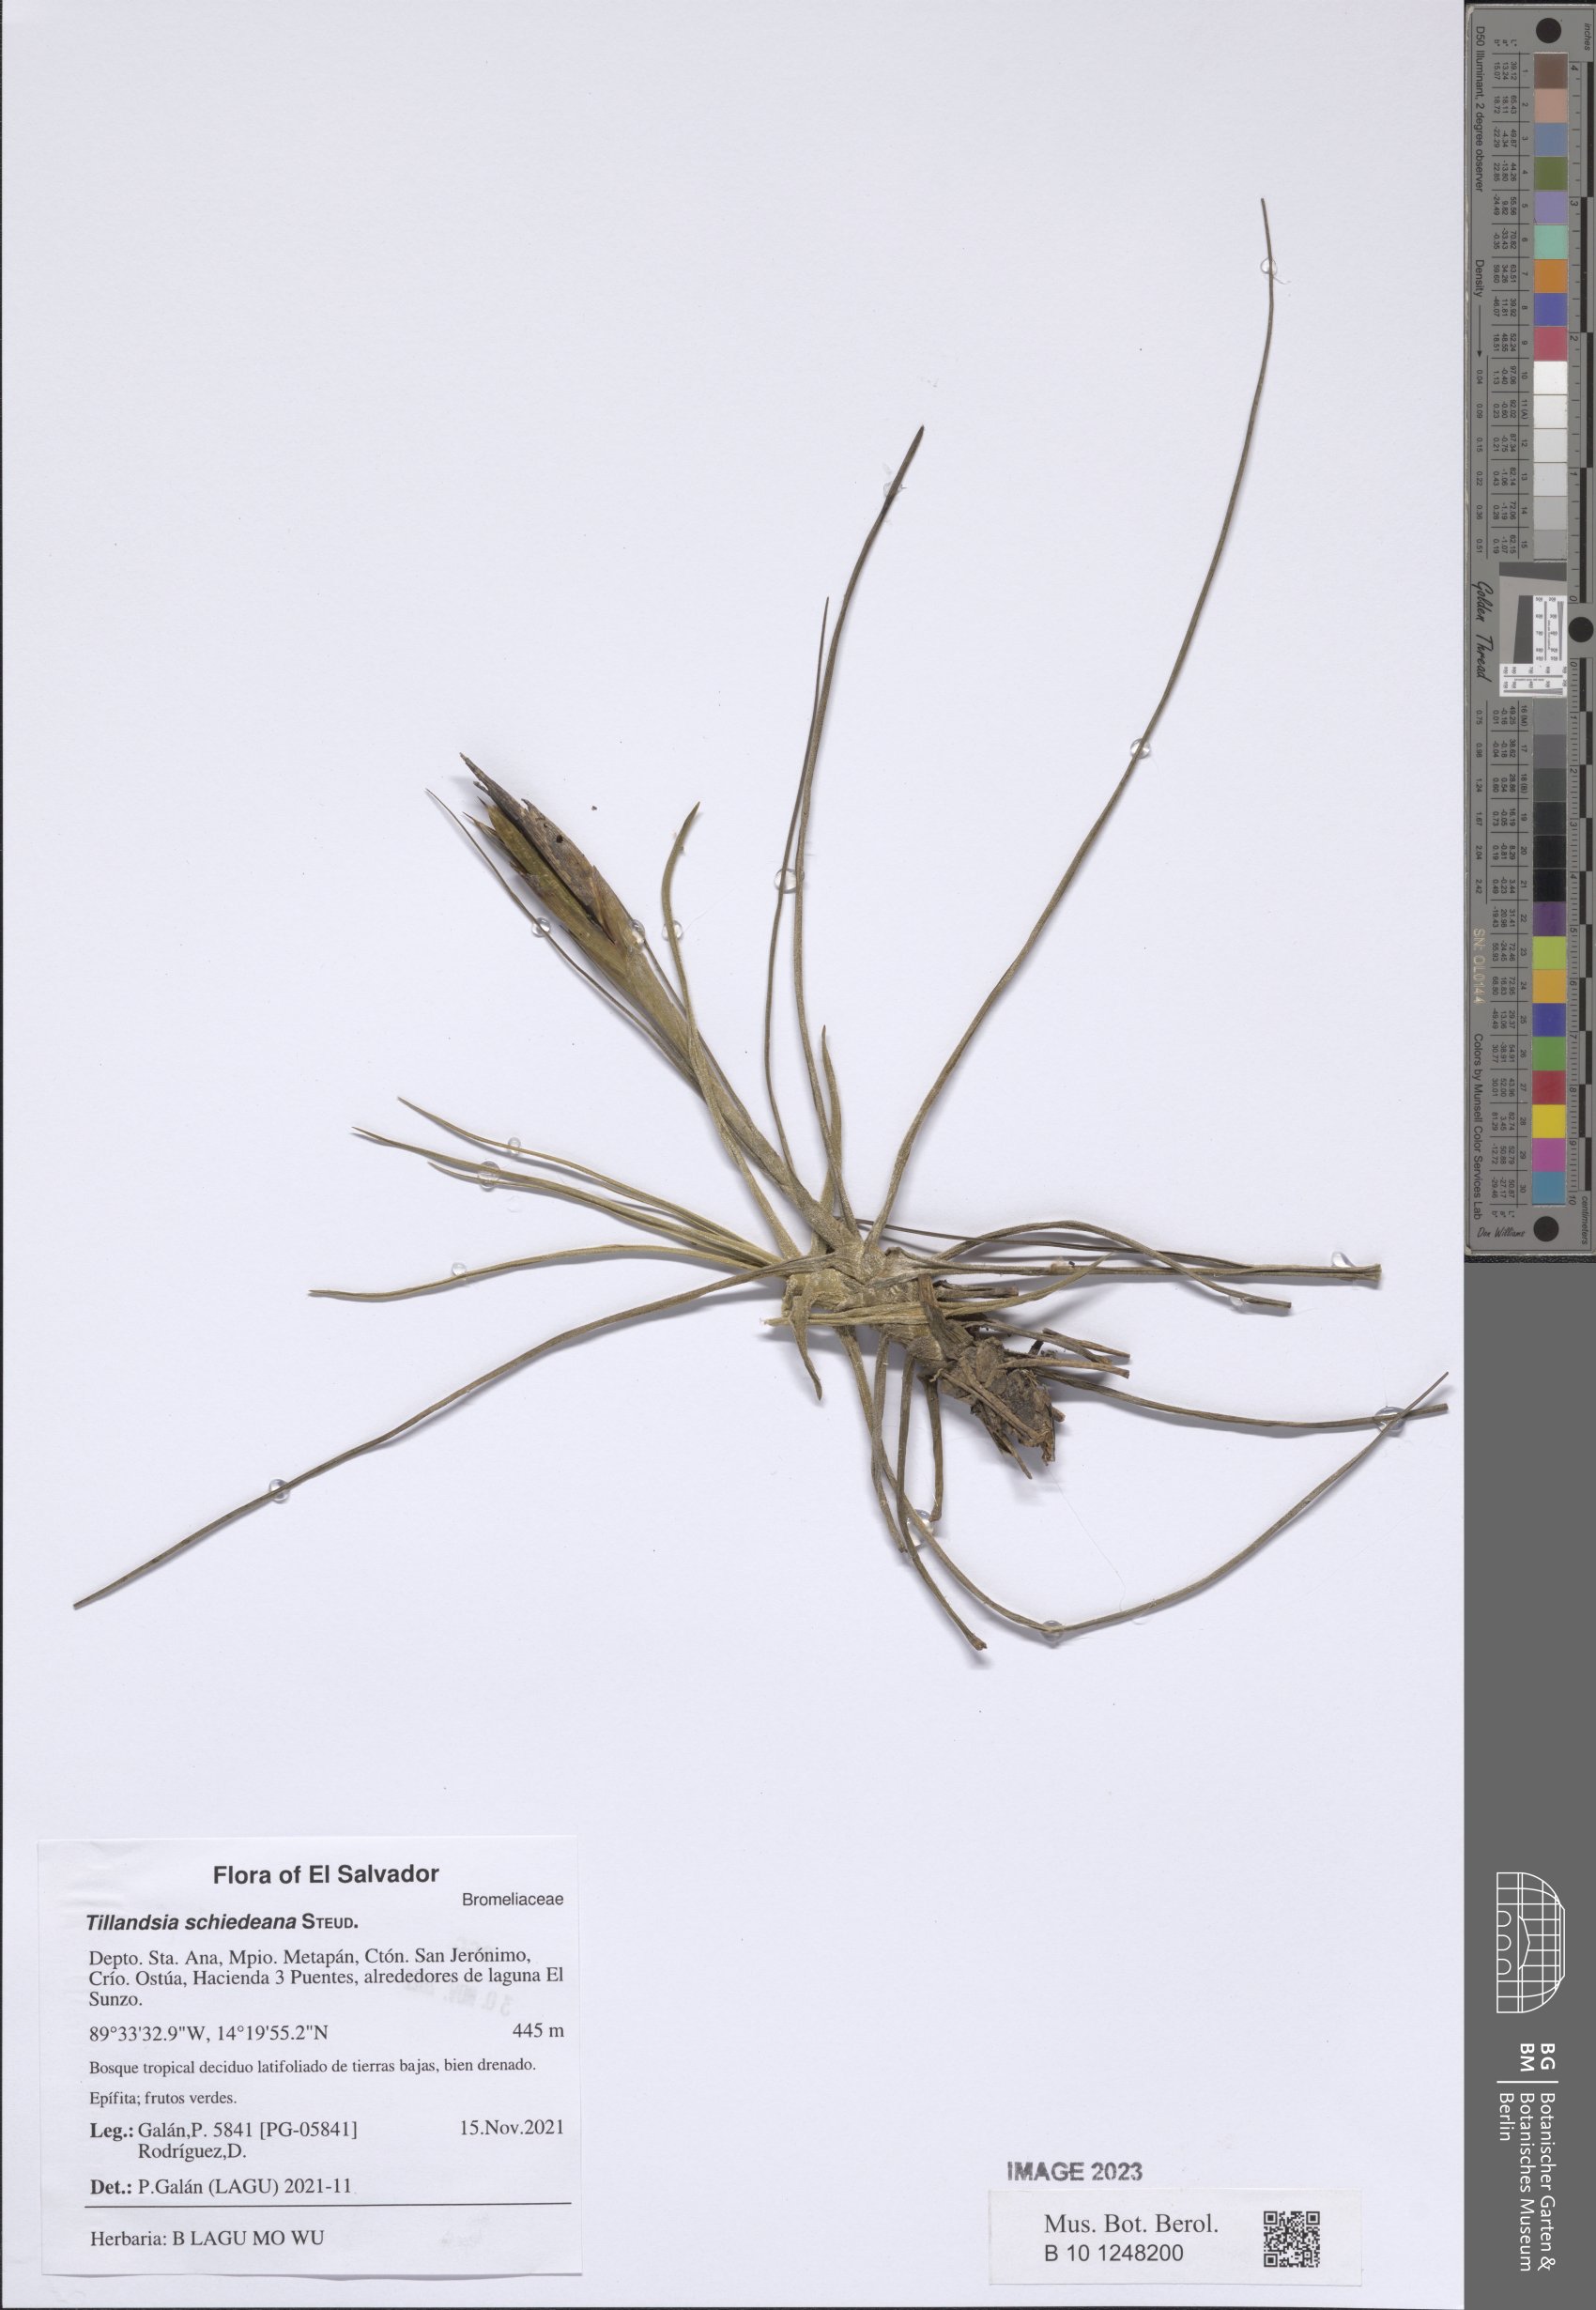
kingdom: Plantae
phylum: Tracheophyta
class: Liliopsida
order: Poales
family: Bromeliaceae
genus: Tillandsia
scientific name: Tillandsia schiedeana
